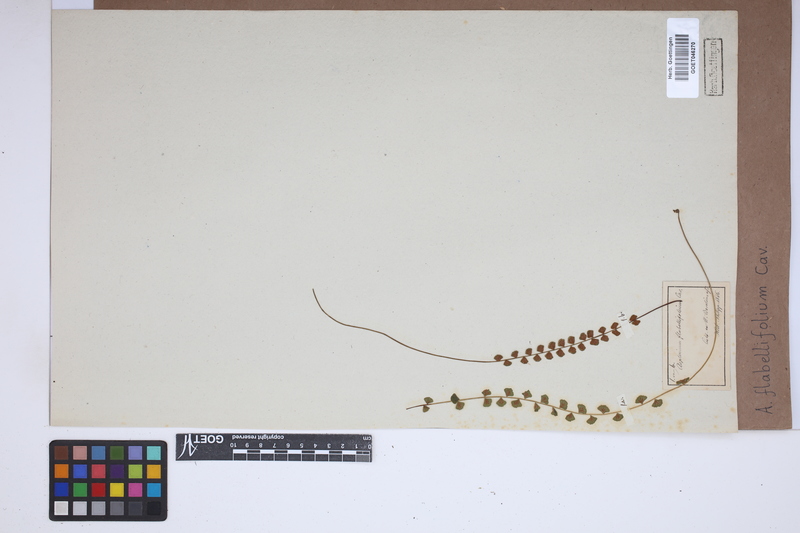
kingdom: Plantae
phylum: Tracheophyta
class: Polypodiopsida
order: Polypodiales
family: Aspleniaceae
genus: Asplenium
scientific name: Asplenium flabellifolium
